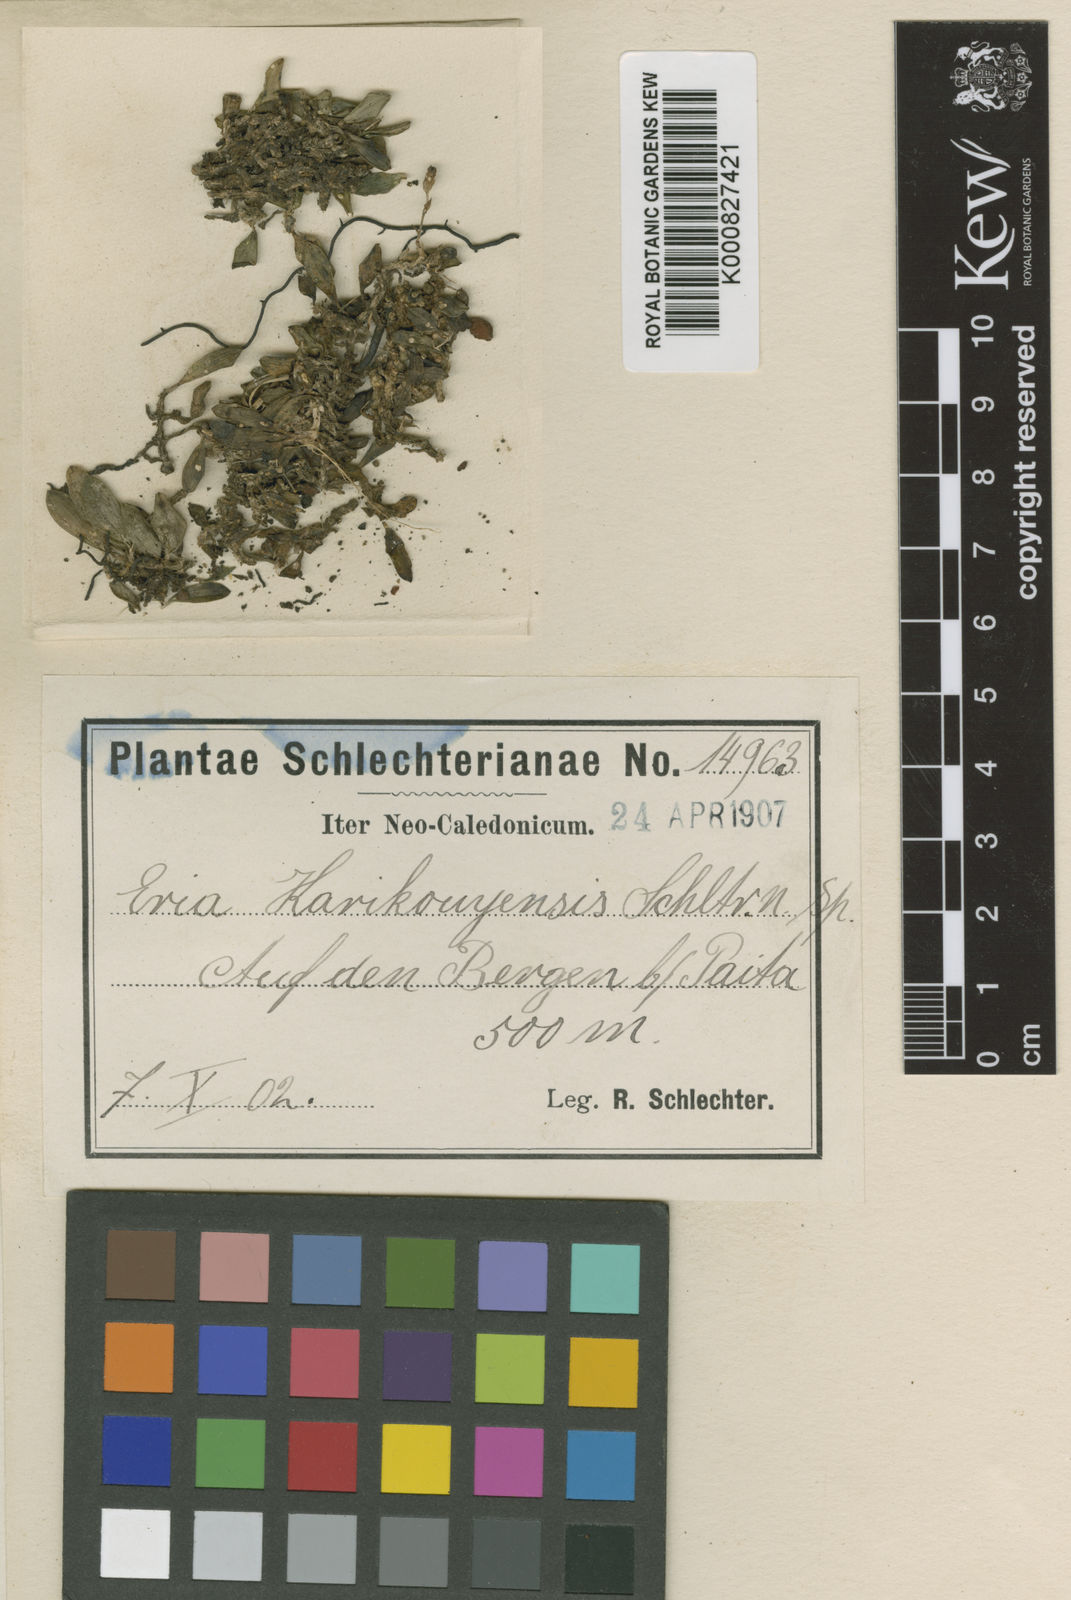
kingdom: Plantae
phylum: Tracheophyta
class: Liliopsida
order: Asparagales
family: Orchidaceae
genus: Porpax
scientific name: Porpax karikouyensis
